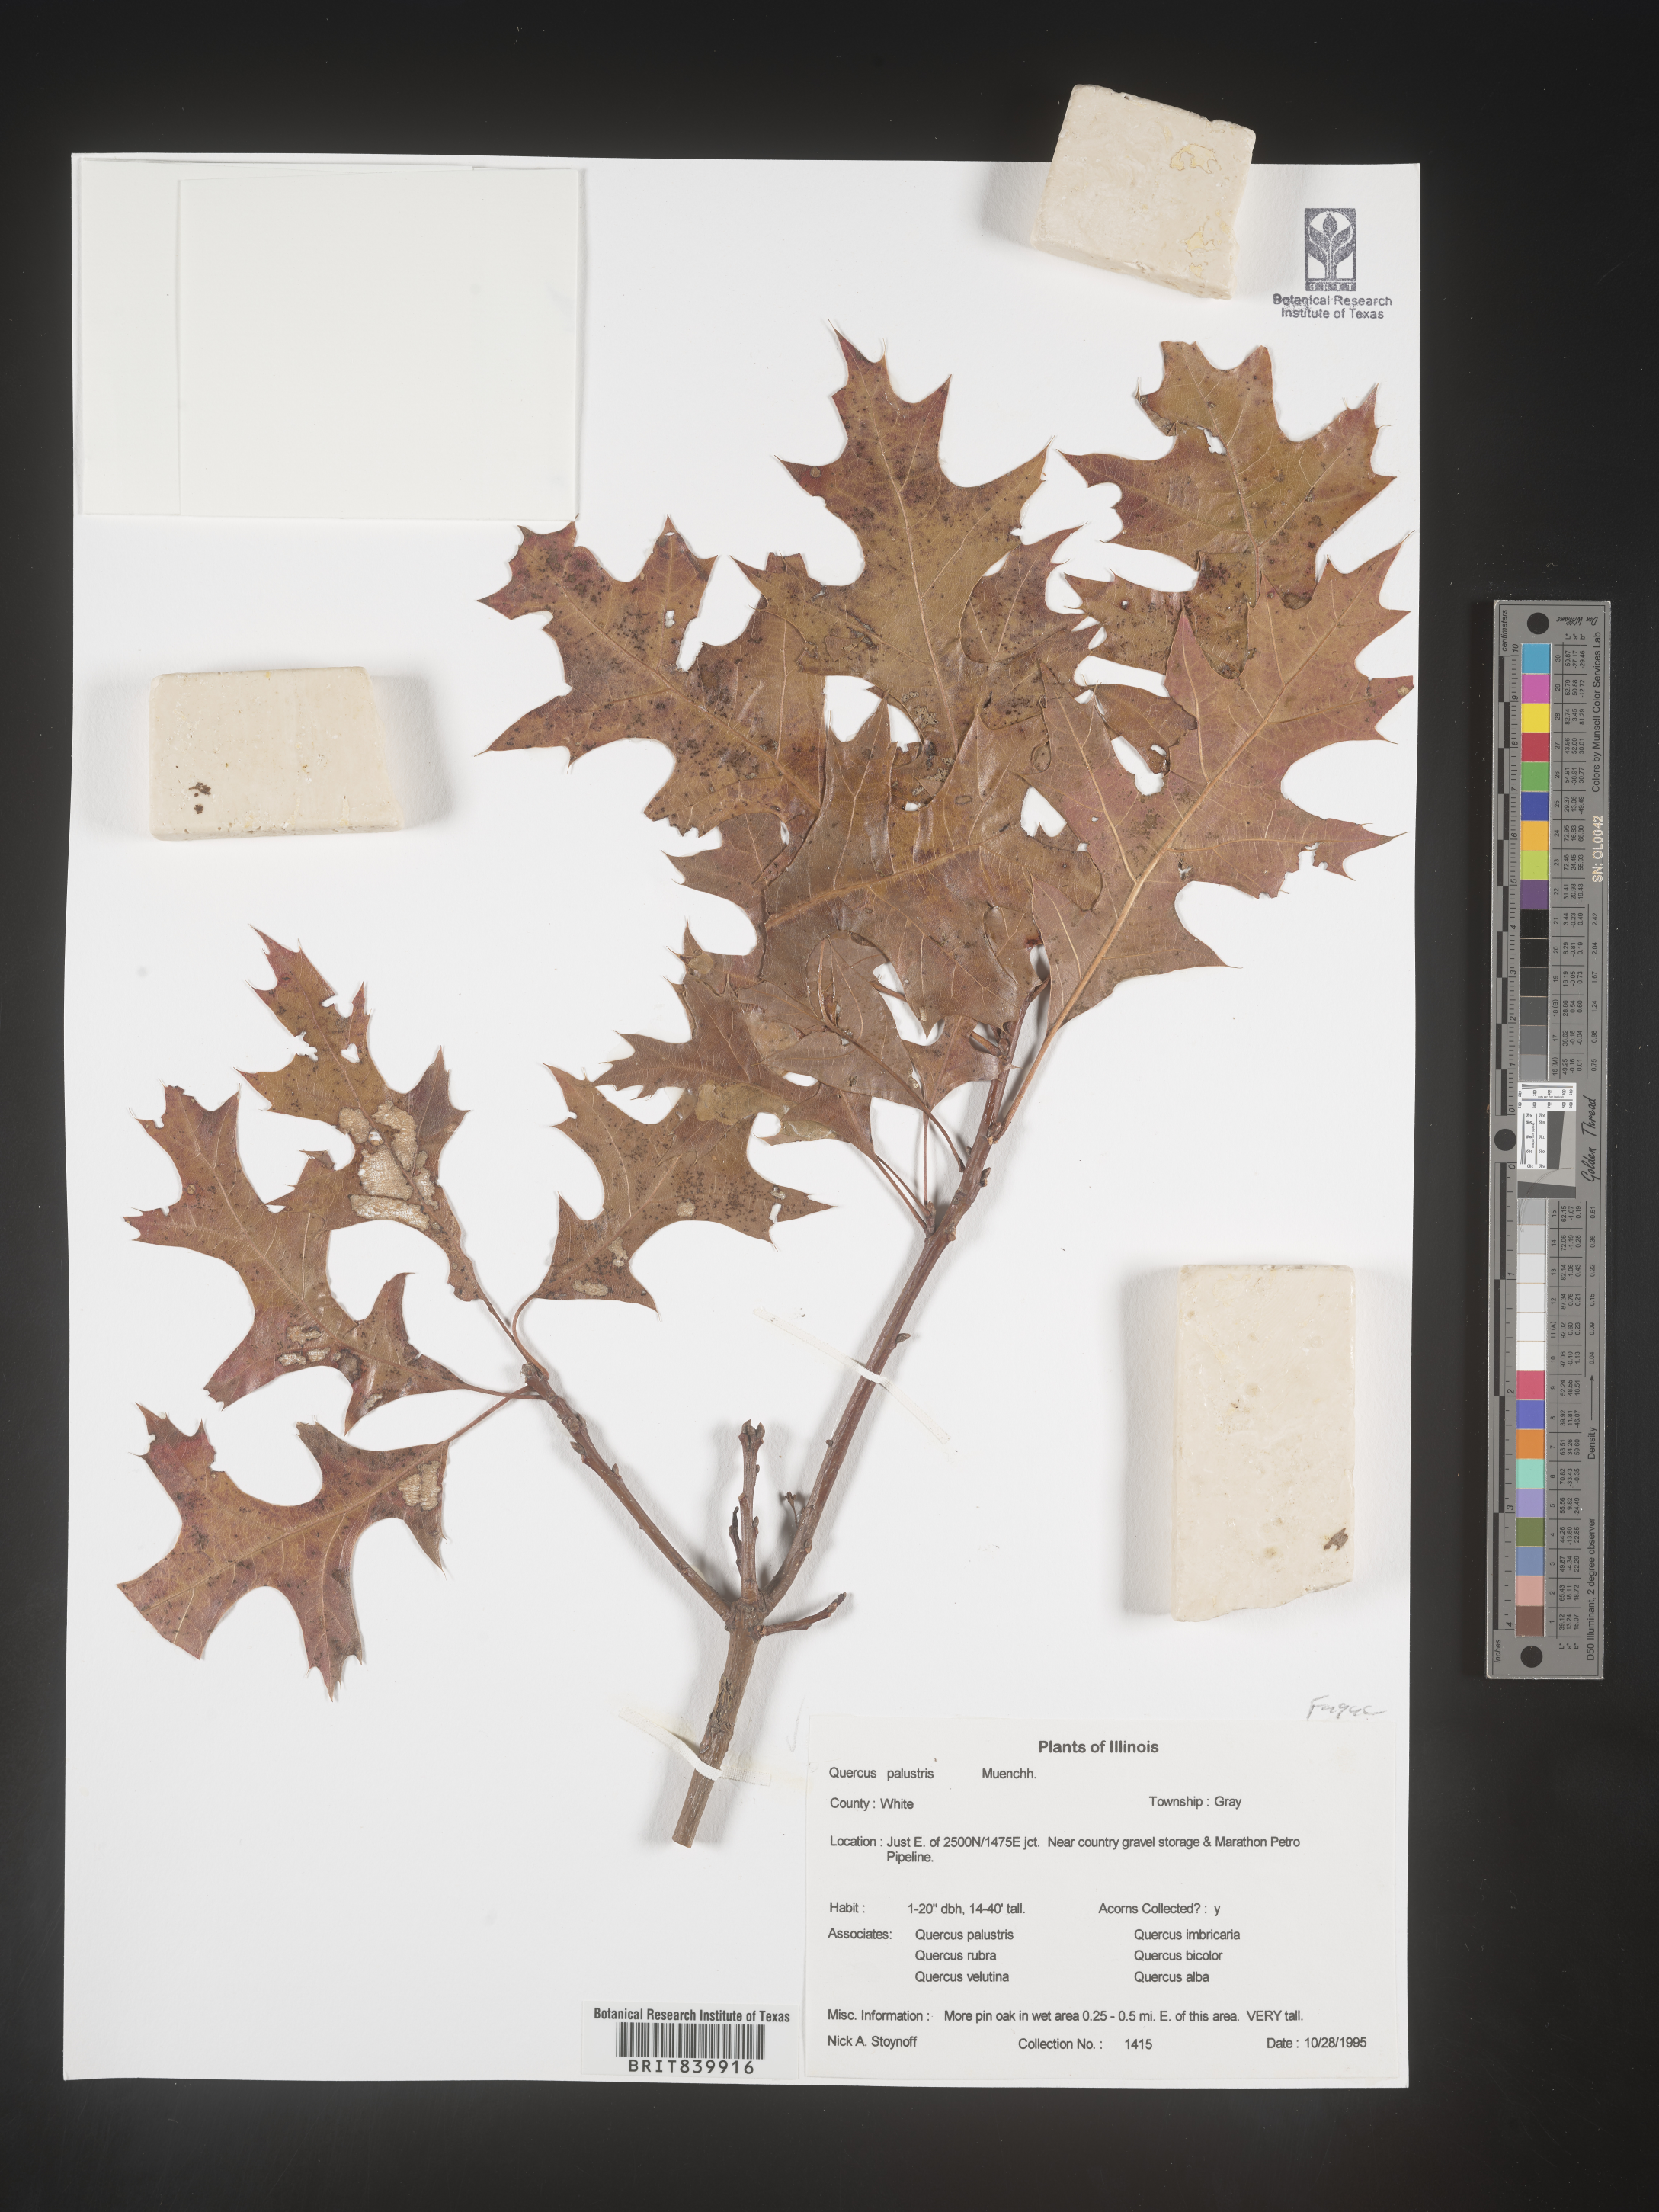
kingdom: Plantae
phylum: Tracheophyta
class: Magnoliopsida
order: Fagales
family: Fagaceae
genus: Quercus
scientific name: Quercus palustris
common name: Pin oak
